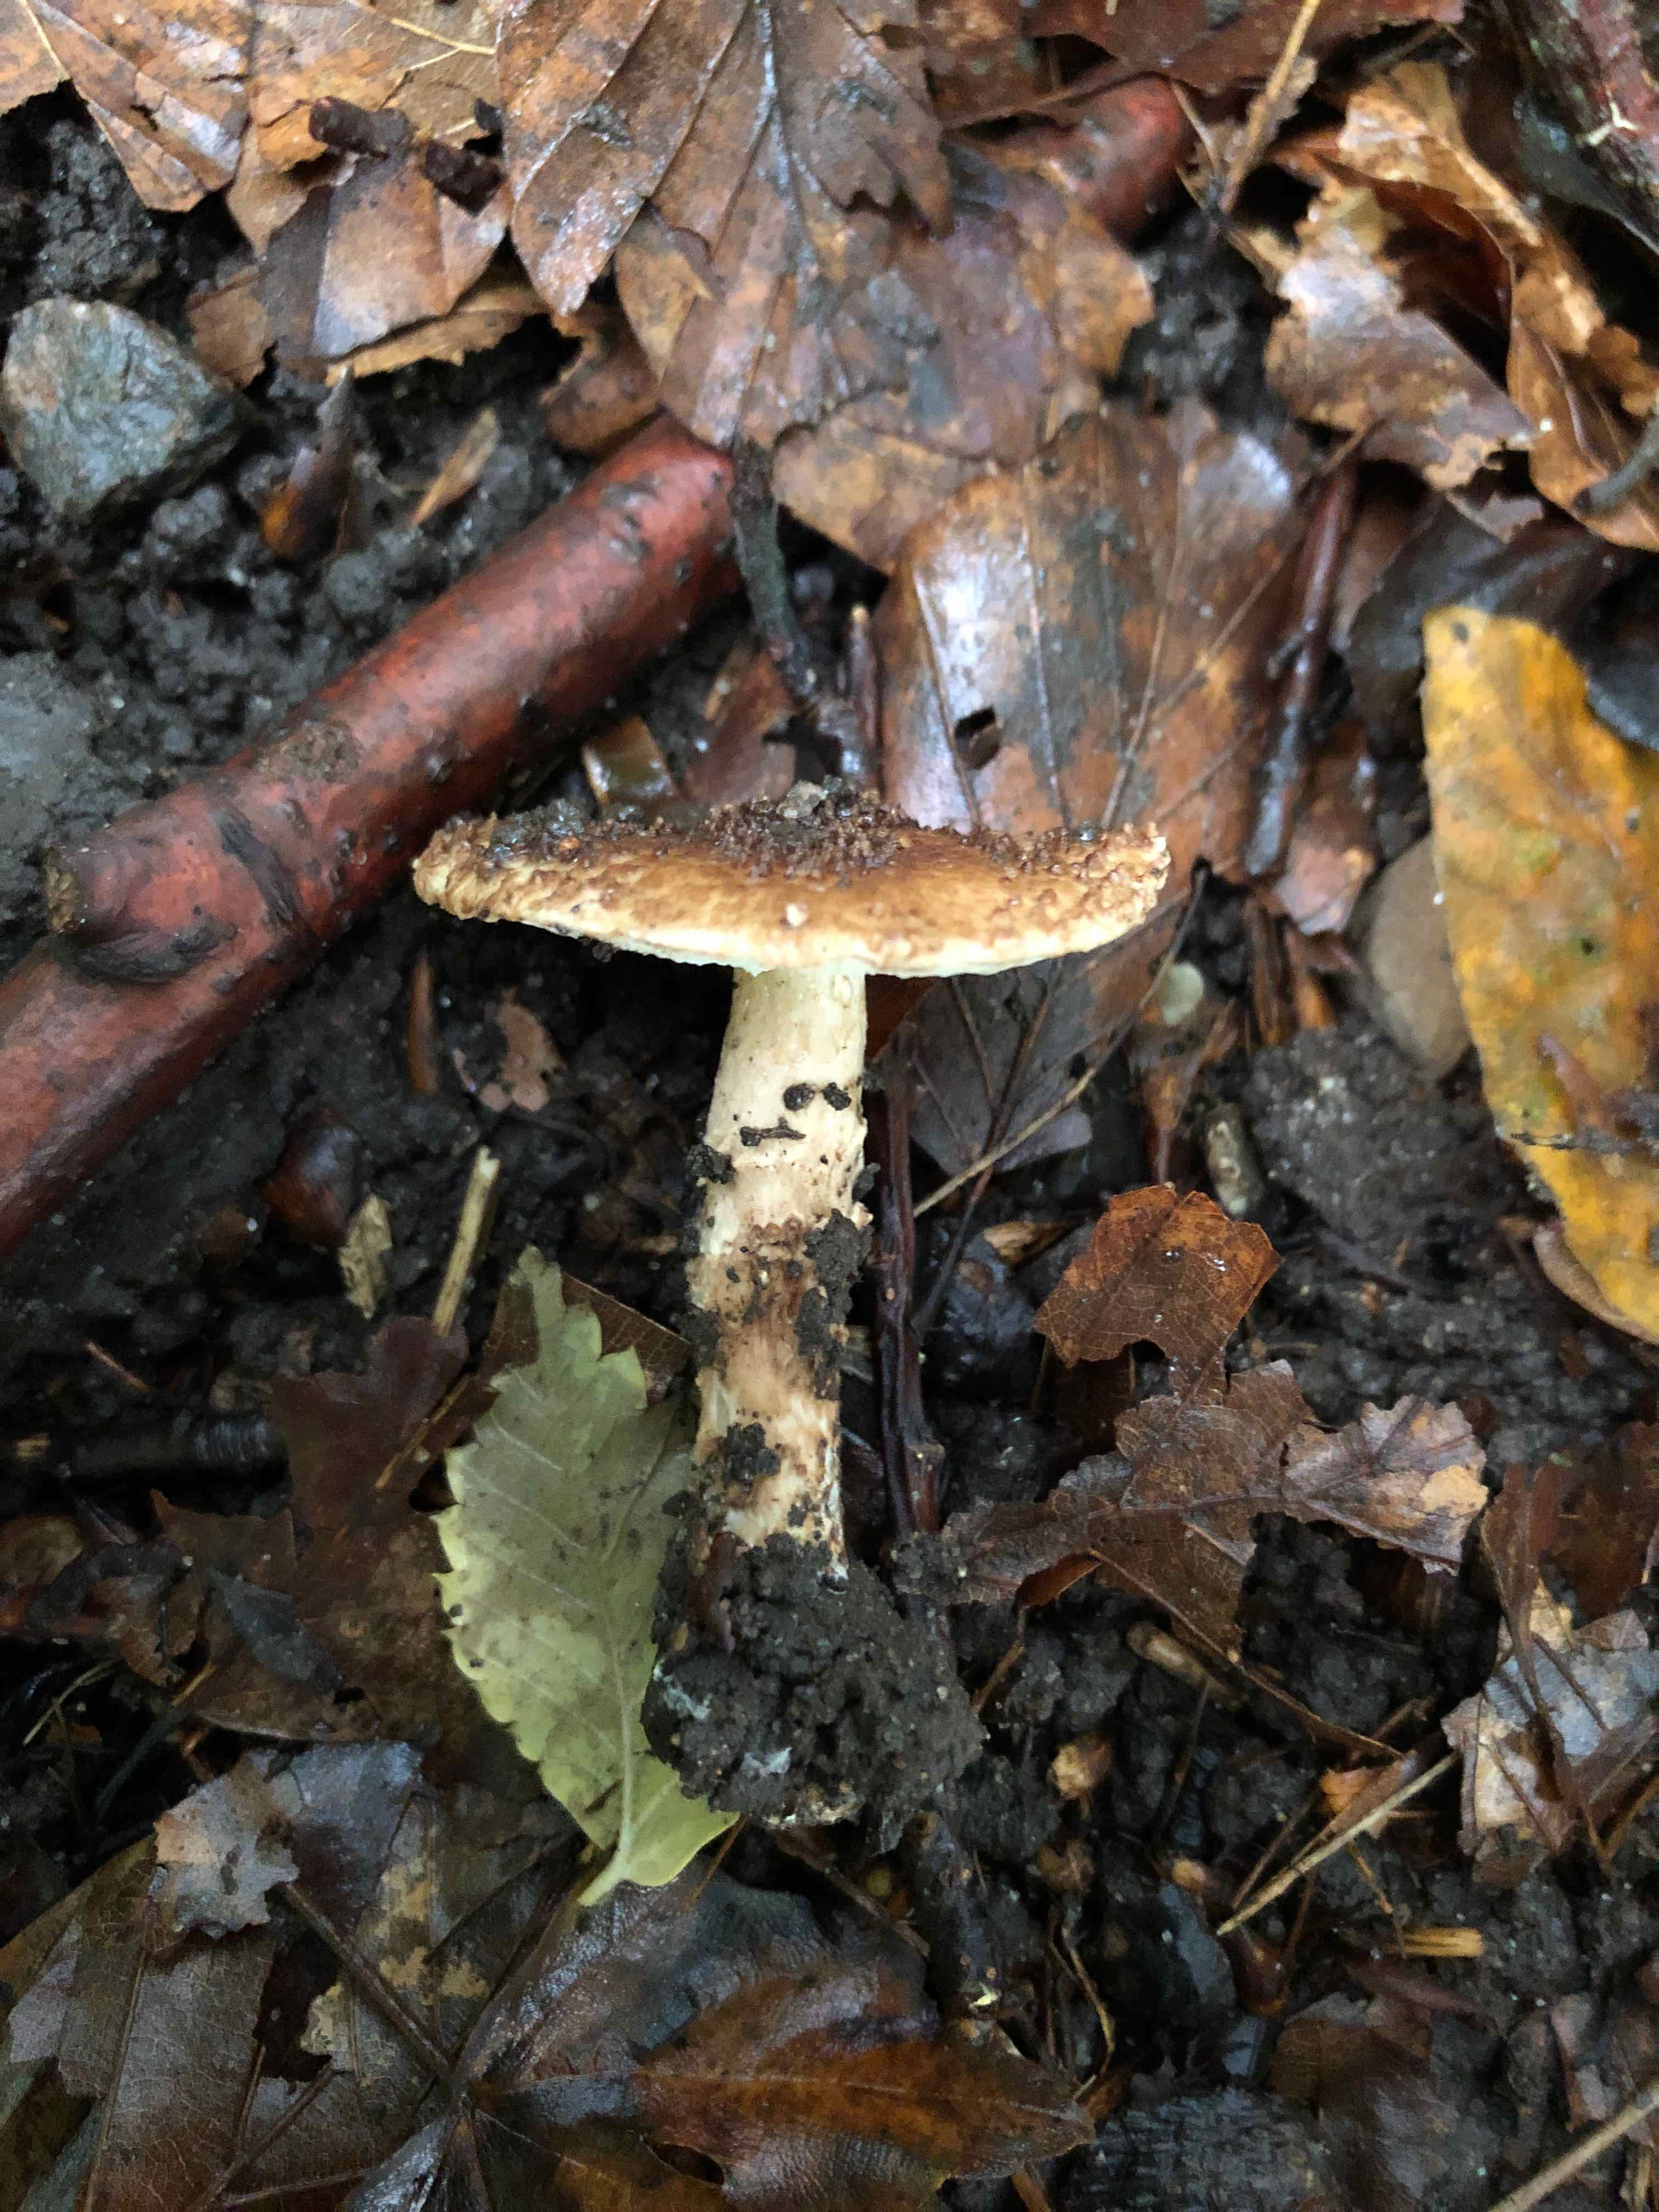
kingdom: Fungi
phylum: Basidiomycota
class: Agaricomycetes
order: Agaricales
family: Agaricaceae
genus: Echinoderma
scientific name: Echinoderma perplexum
